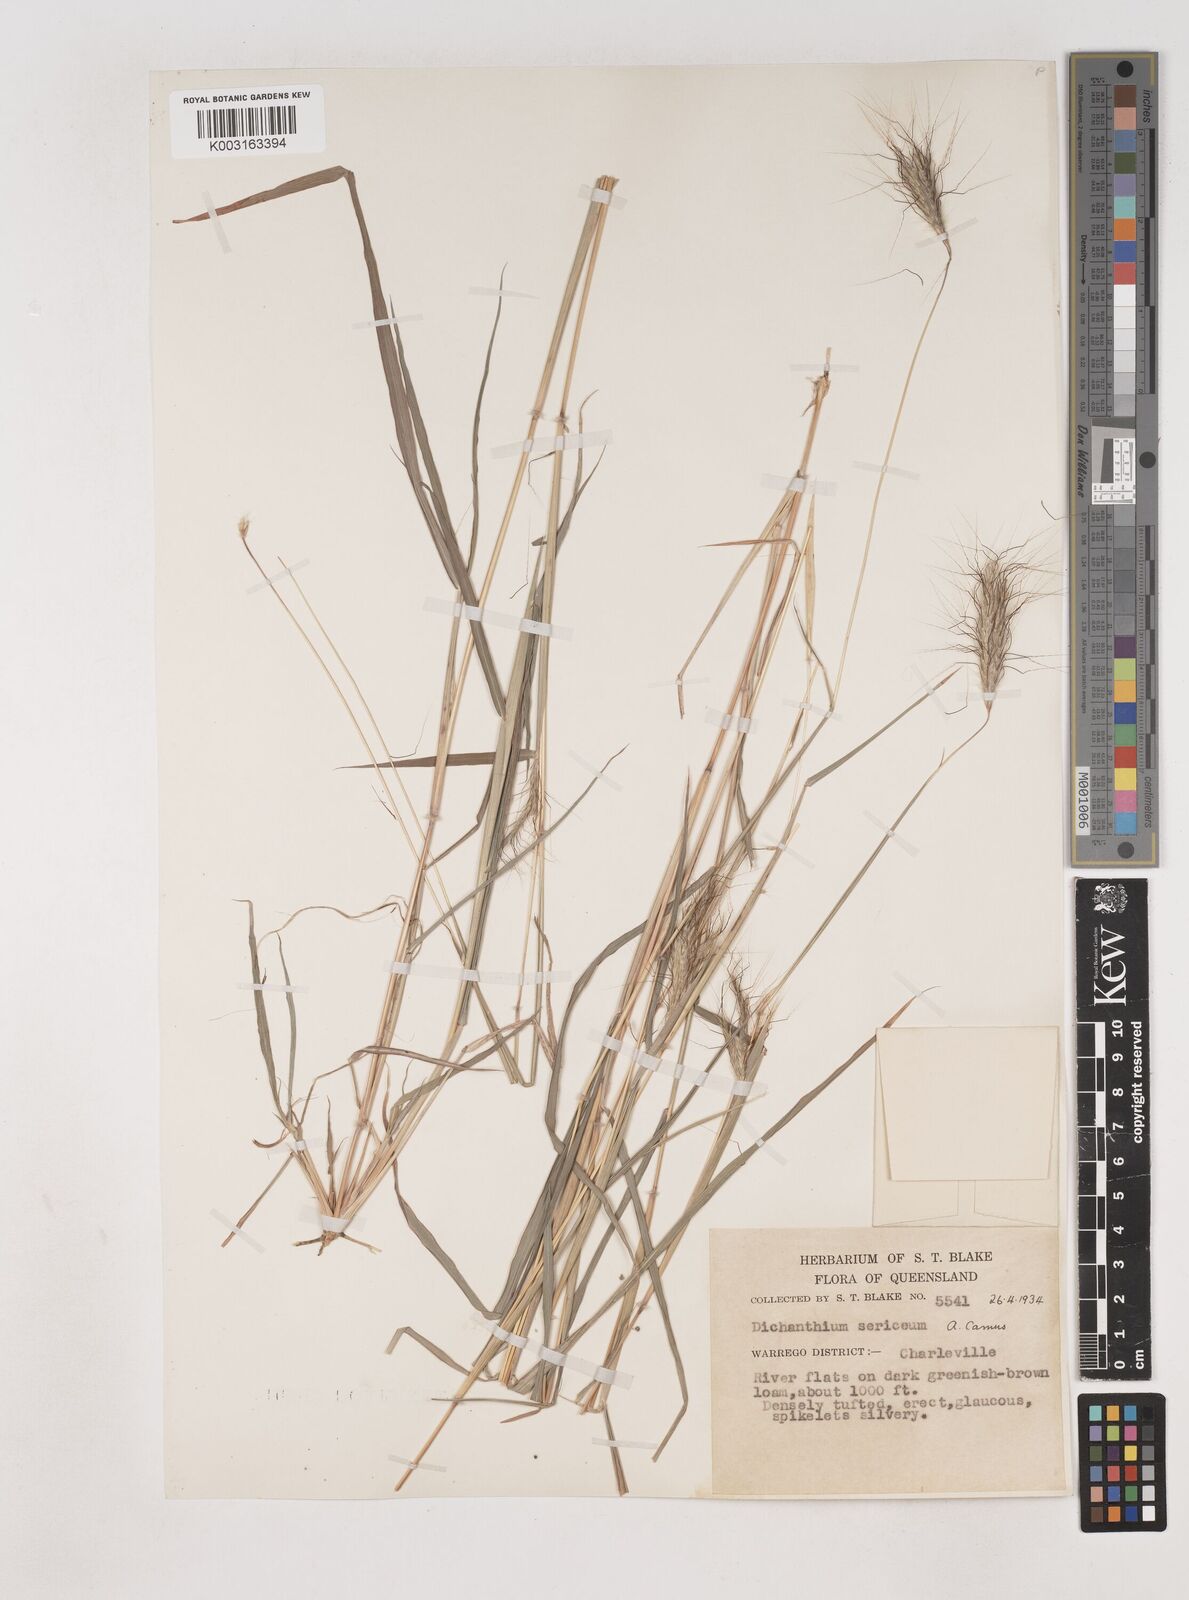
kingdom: Plantae
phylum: Tracheophyta
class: Liliopsida
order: Poales
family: Poaceae
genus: Dichanthium
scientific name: Dichanthium sericeum
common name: Silky bluestem
